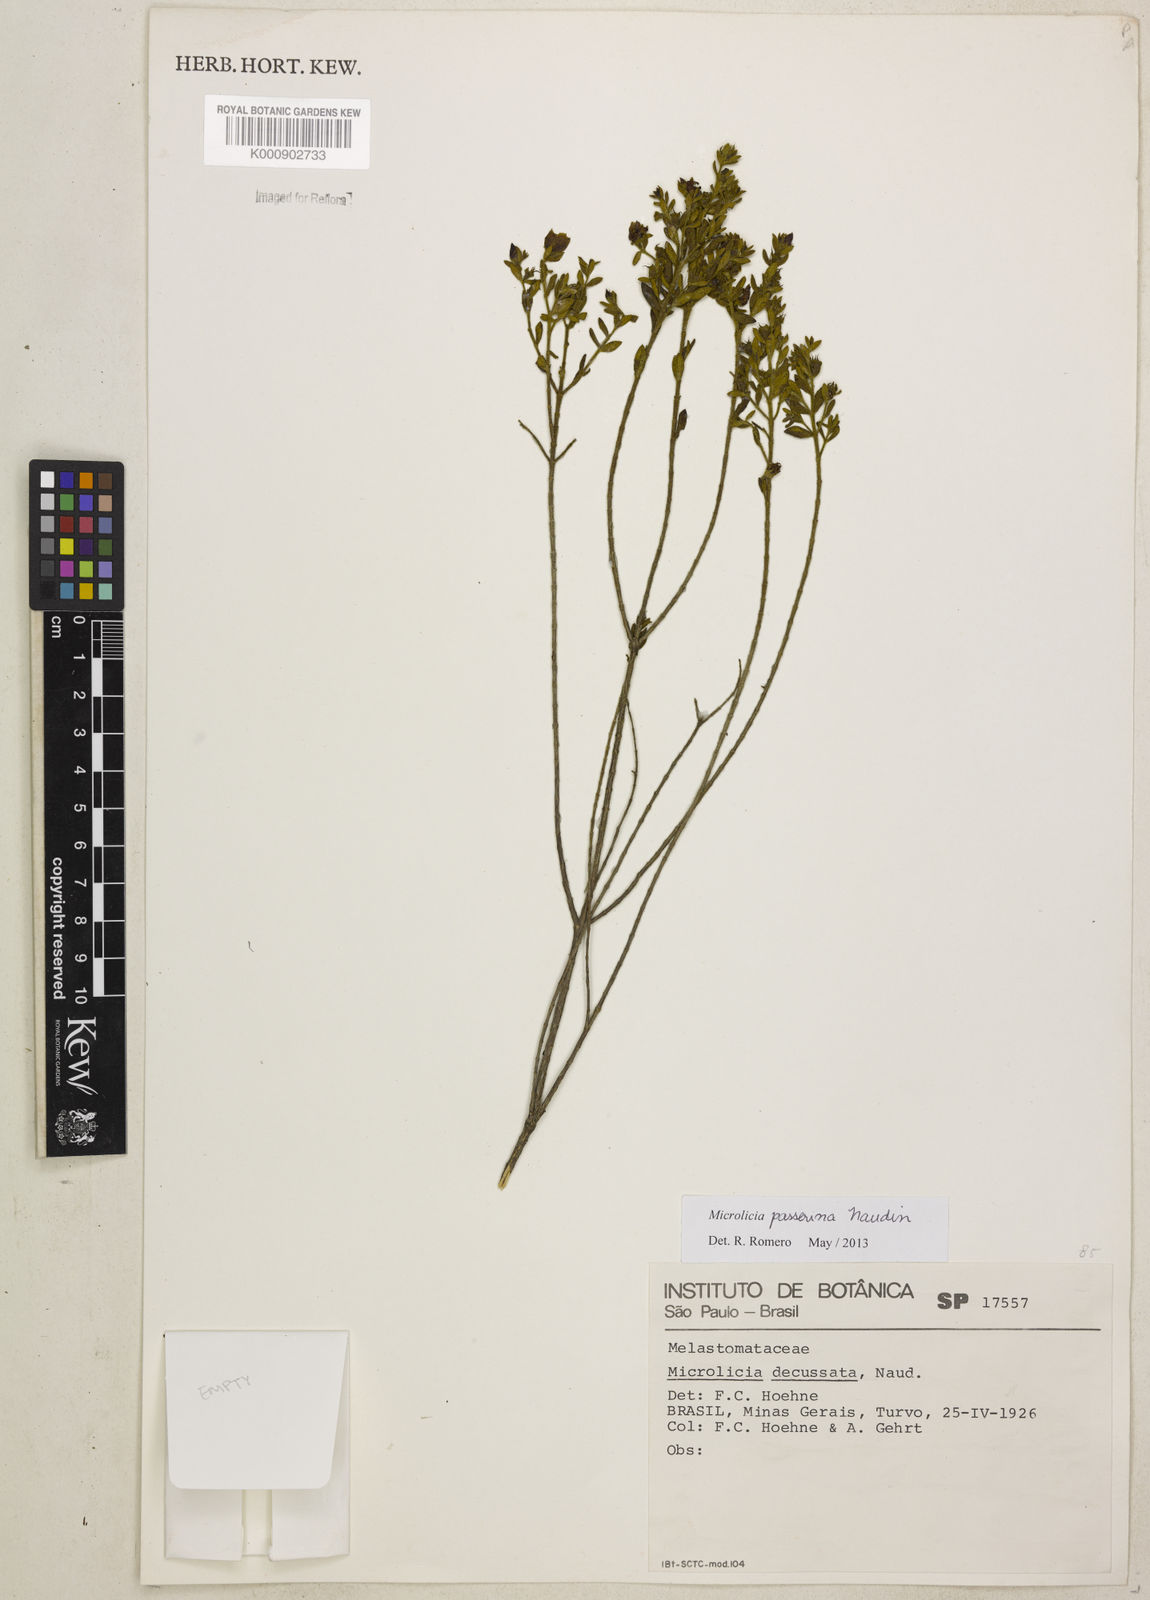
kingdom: Plantae
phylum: Tracheophyta
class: Magnoliopsida
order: Myrtales
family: Melastomataceae
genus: Microlicia
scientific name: Microlicia passerina
